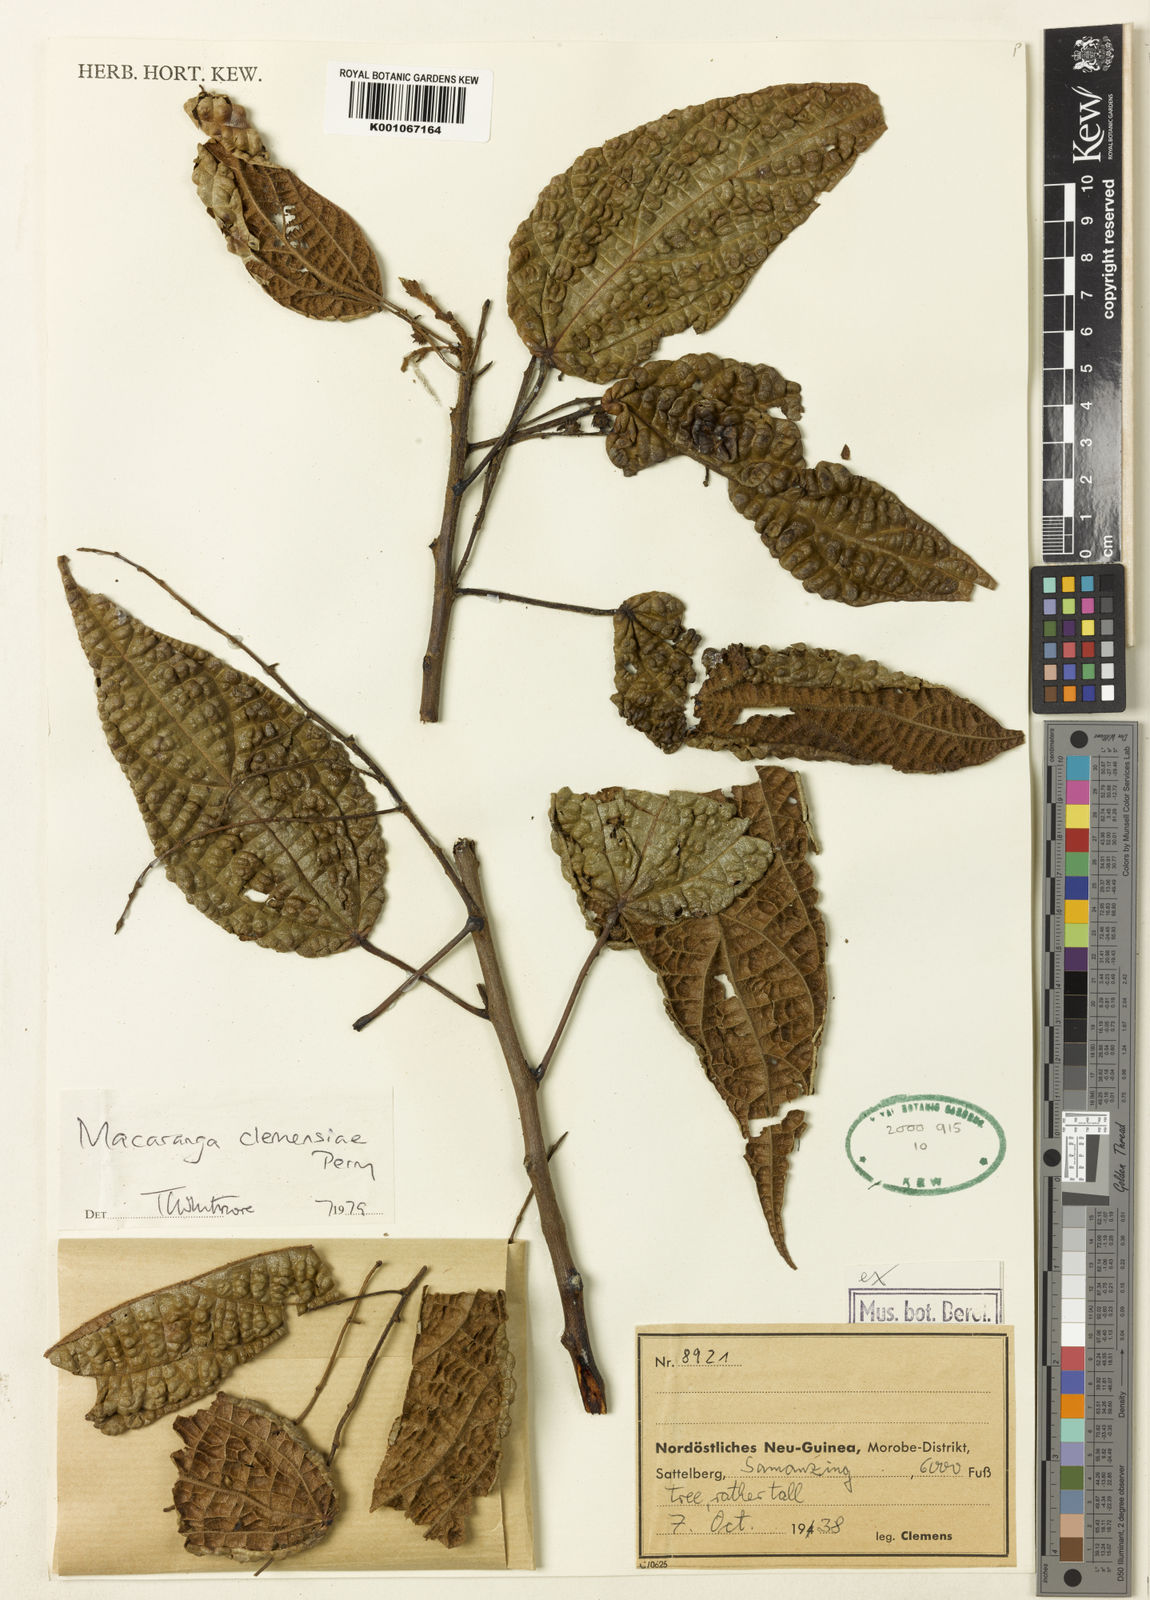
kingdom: Plantae
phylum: Tracheophyta
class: Magnoliopsida
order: Malpighiales
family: Euphorbiaceae
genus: Macaranga
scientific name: Macaranga clemensiae
